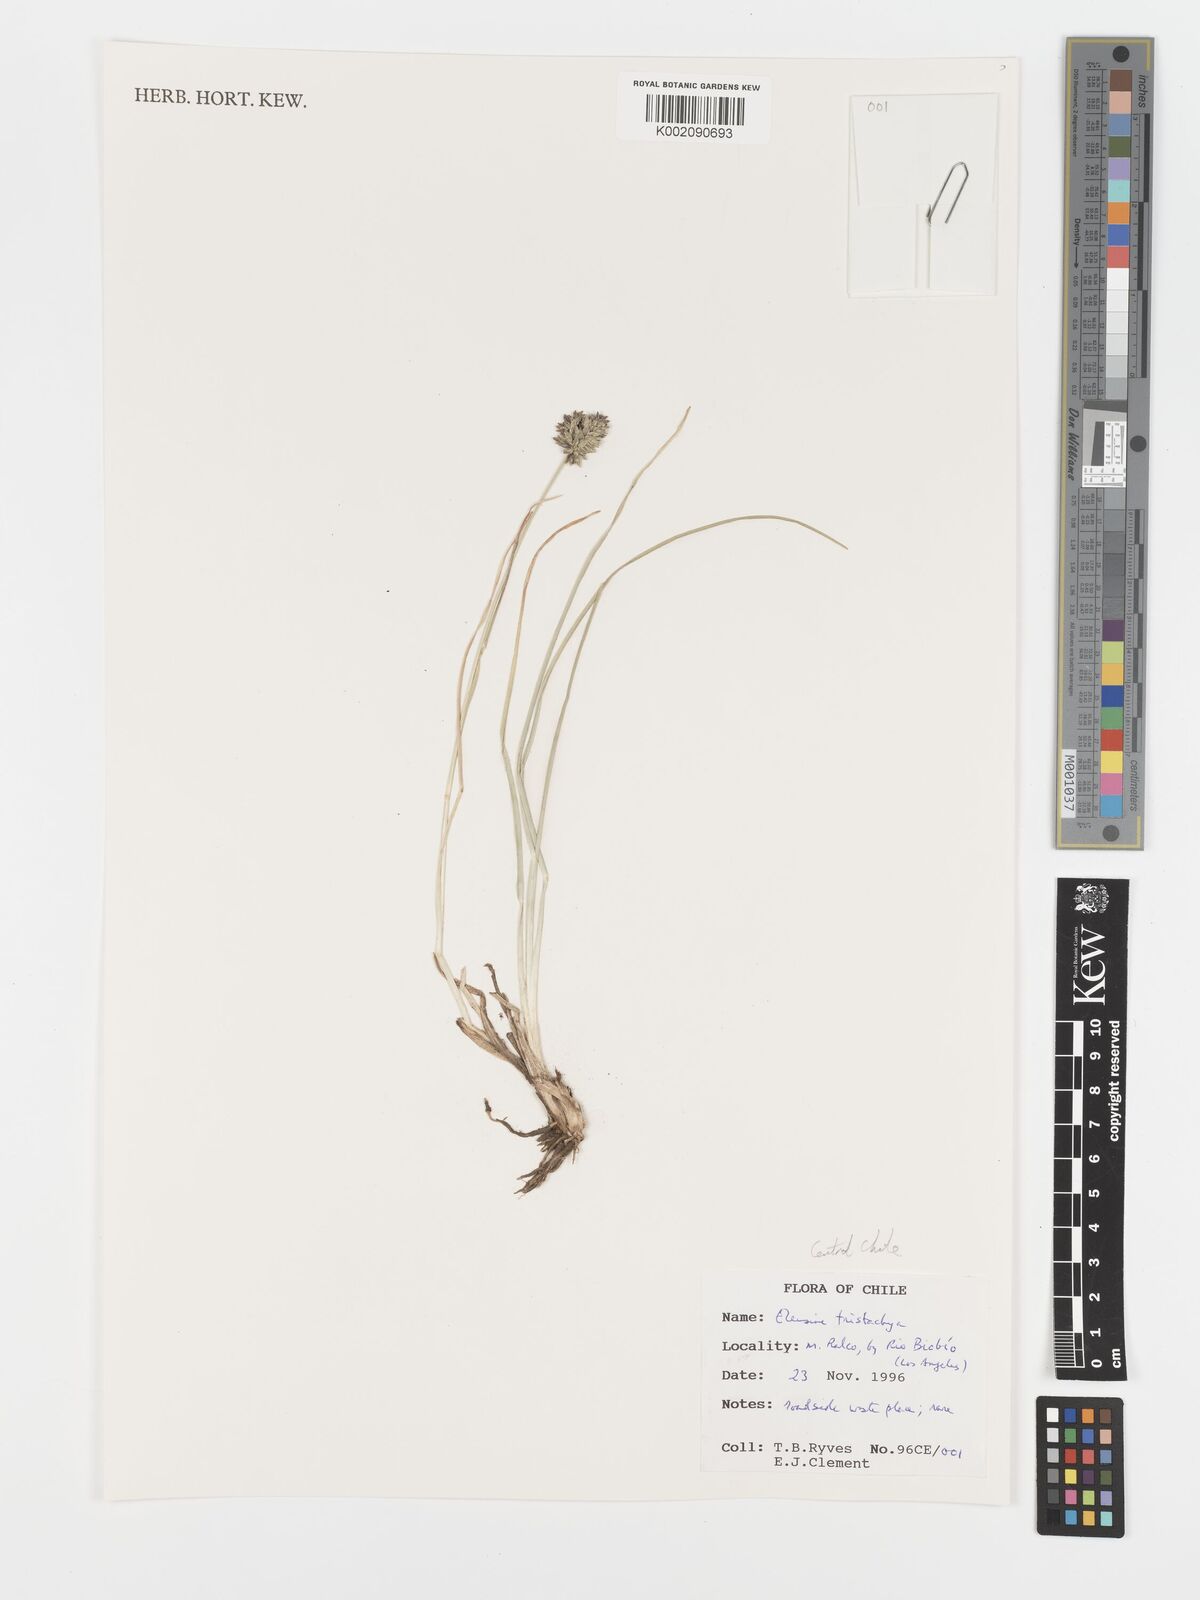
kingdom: Plantae
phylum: Tracheophyta
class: Liliopsida
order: Poales
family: Poaceae
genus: Eleusine
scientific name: Eleusine tristachya
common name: American yard-grass
